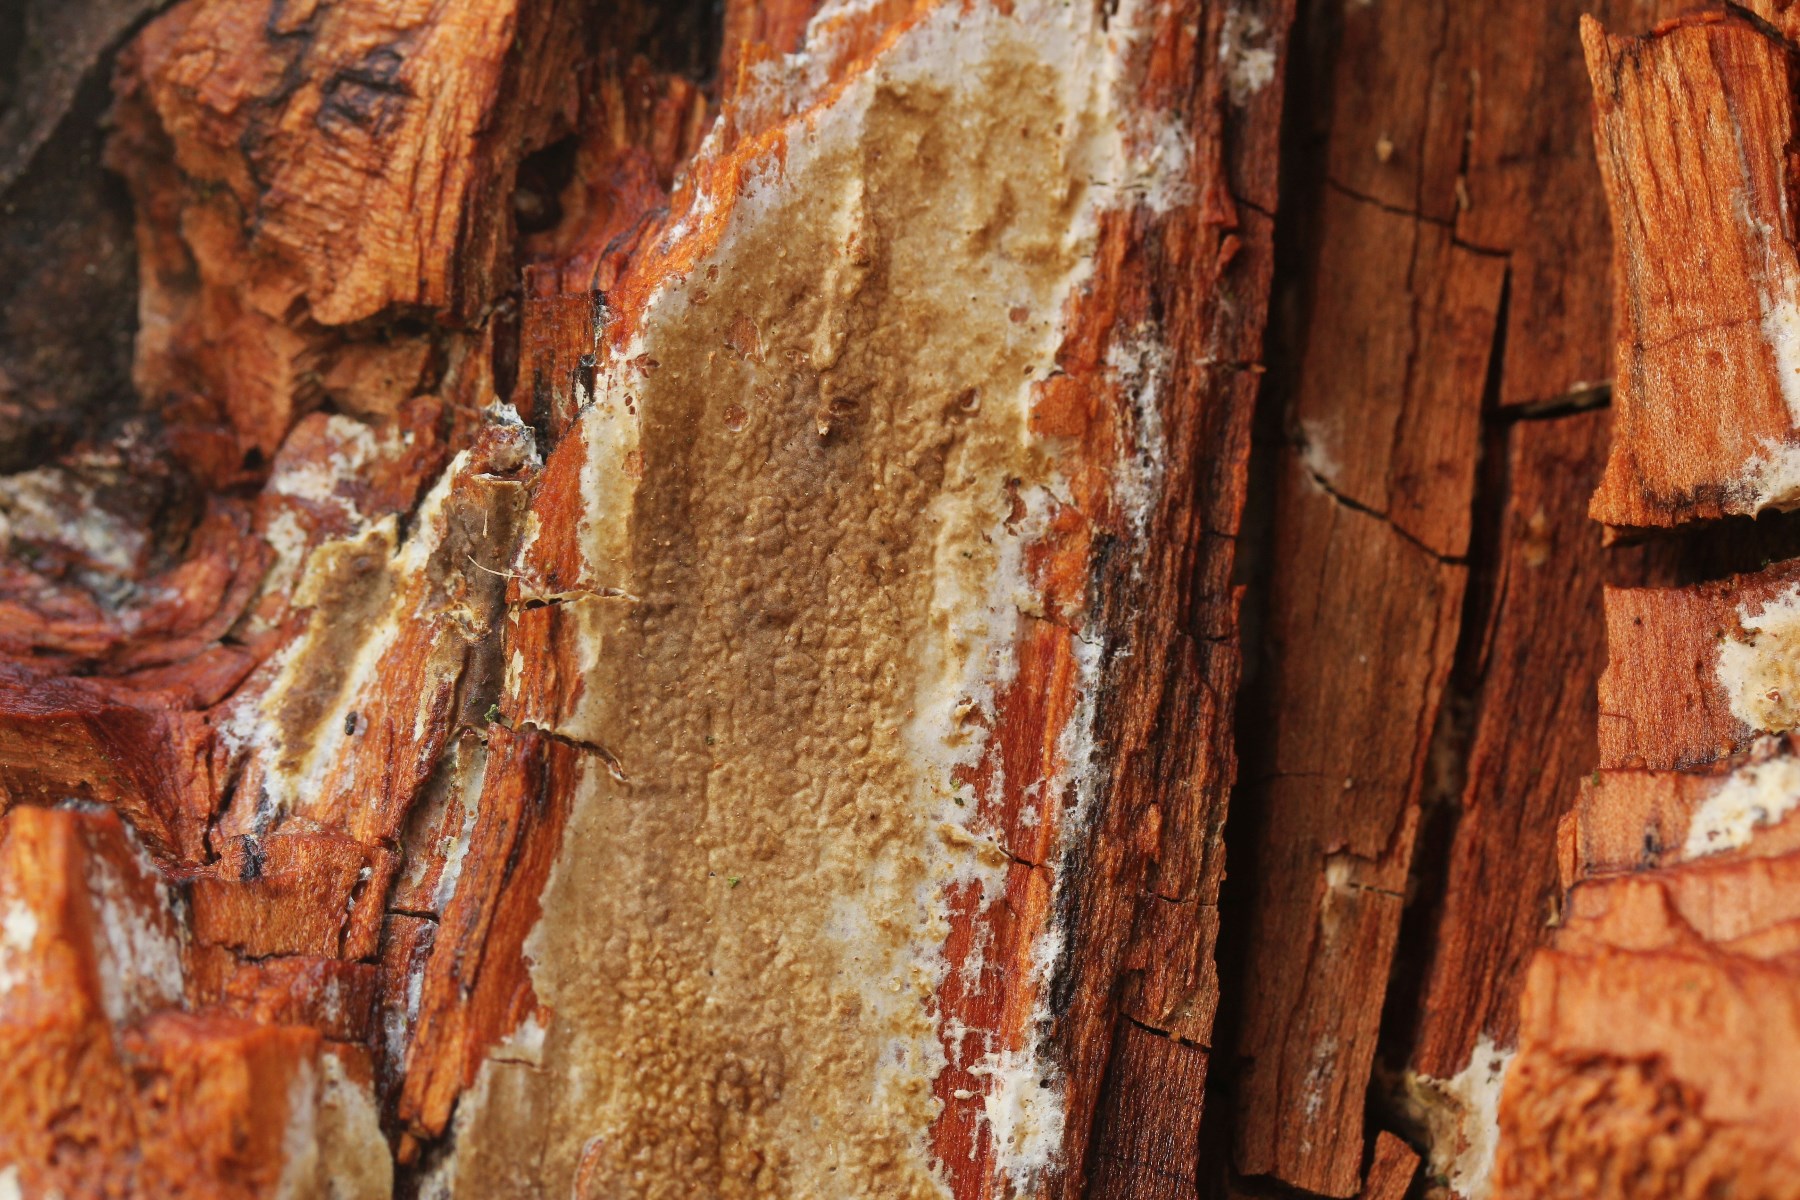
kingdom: Fungi
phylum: Basidiomycota
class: Agaricomycetes
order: Boletales
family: Coniophoraceae
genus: Coniophora
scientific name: Coniophora puteana
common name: gul tømmersvamp
